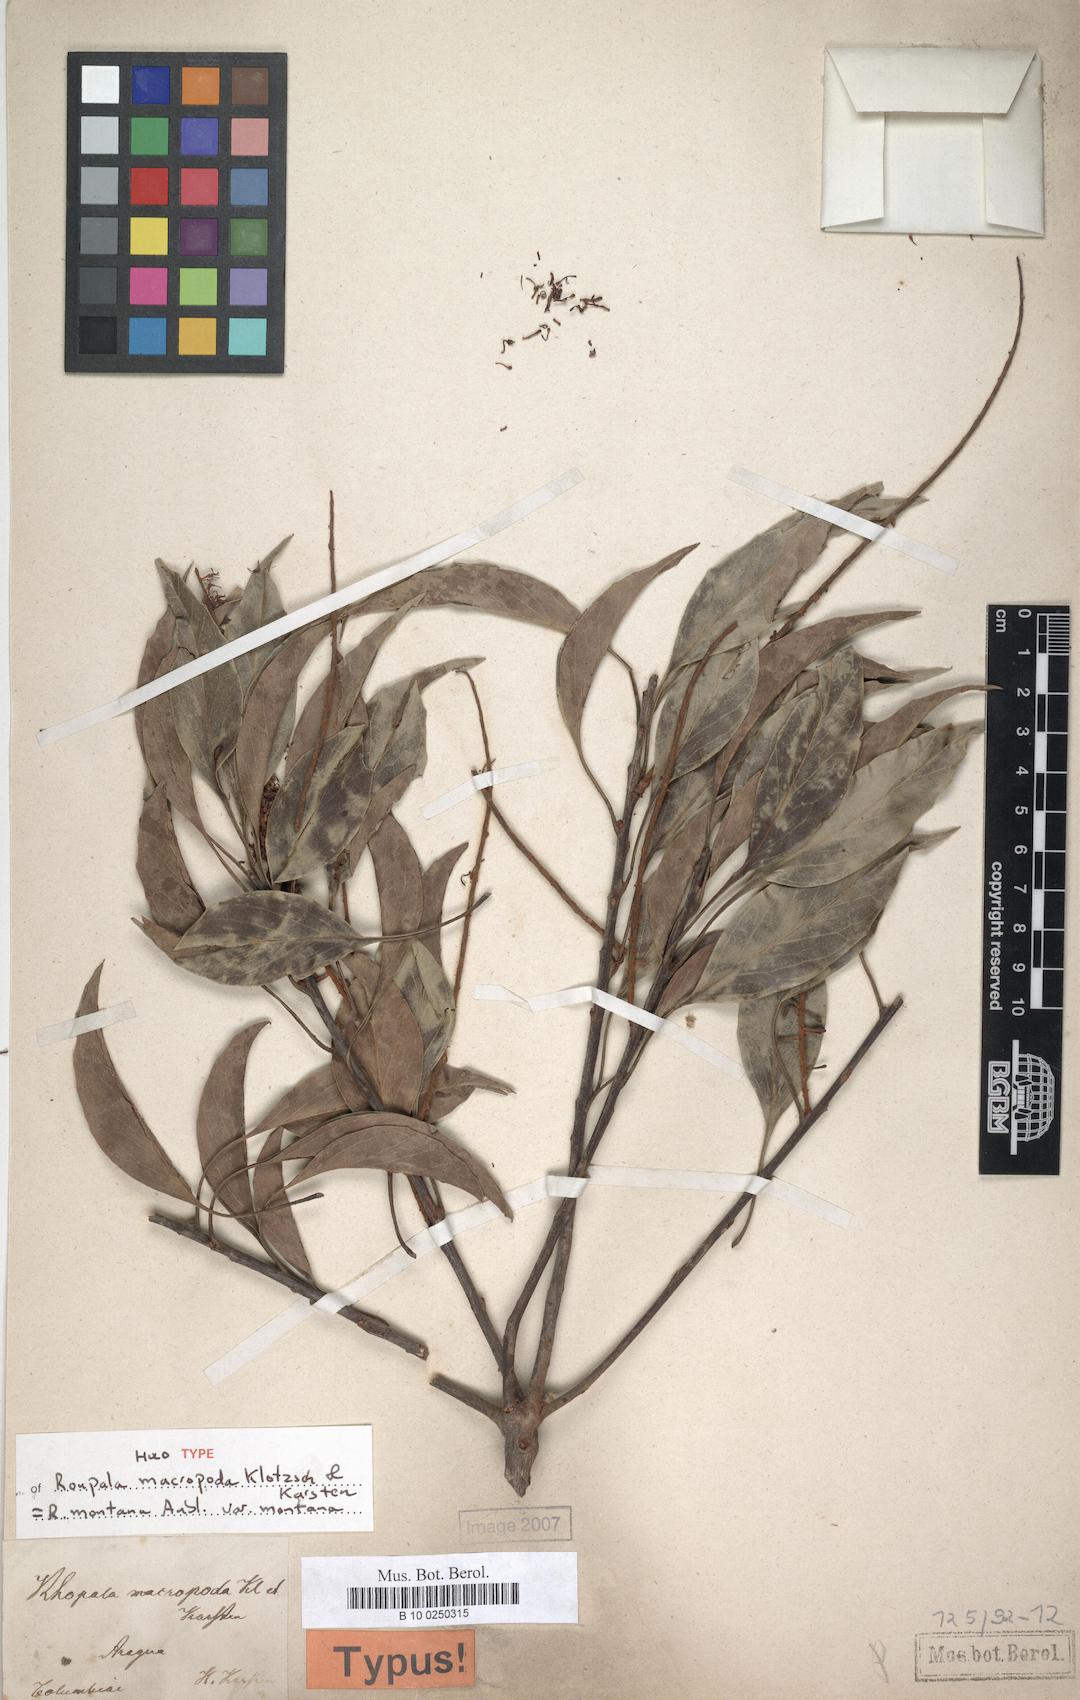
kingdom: Plantae
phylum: Tracheophyta
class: Magnoliopsida
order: Proteales
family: Proteaceae
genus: Roupala
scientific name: Roupala montana
